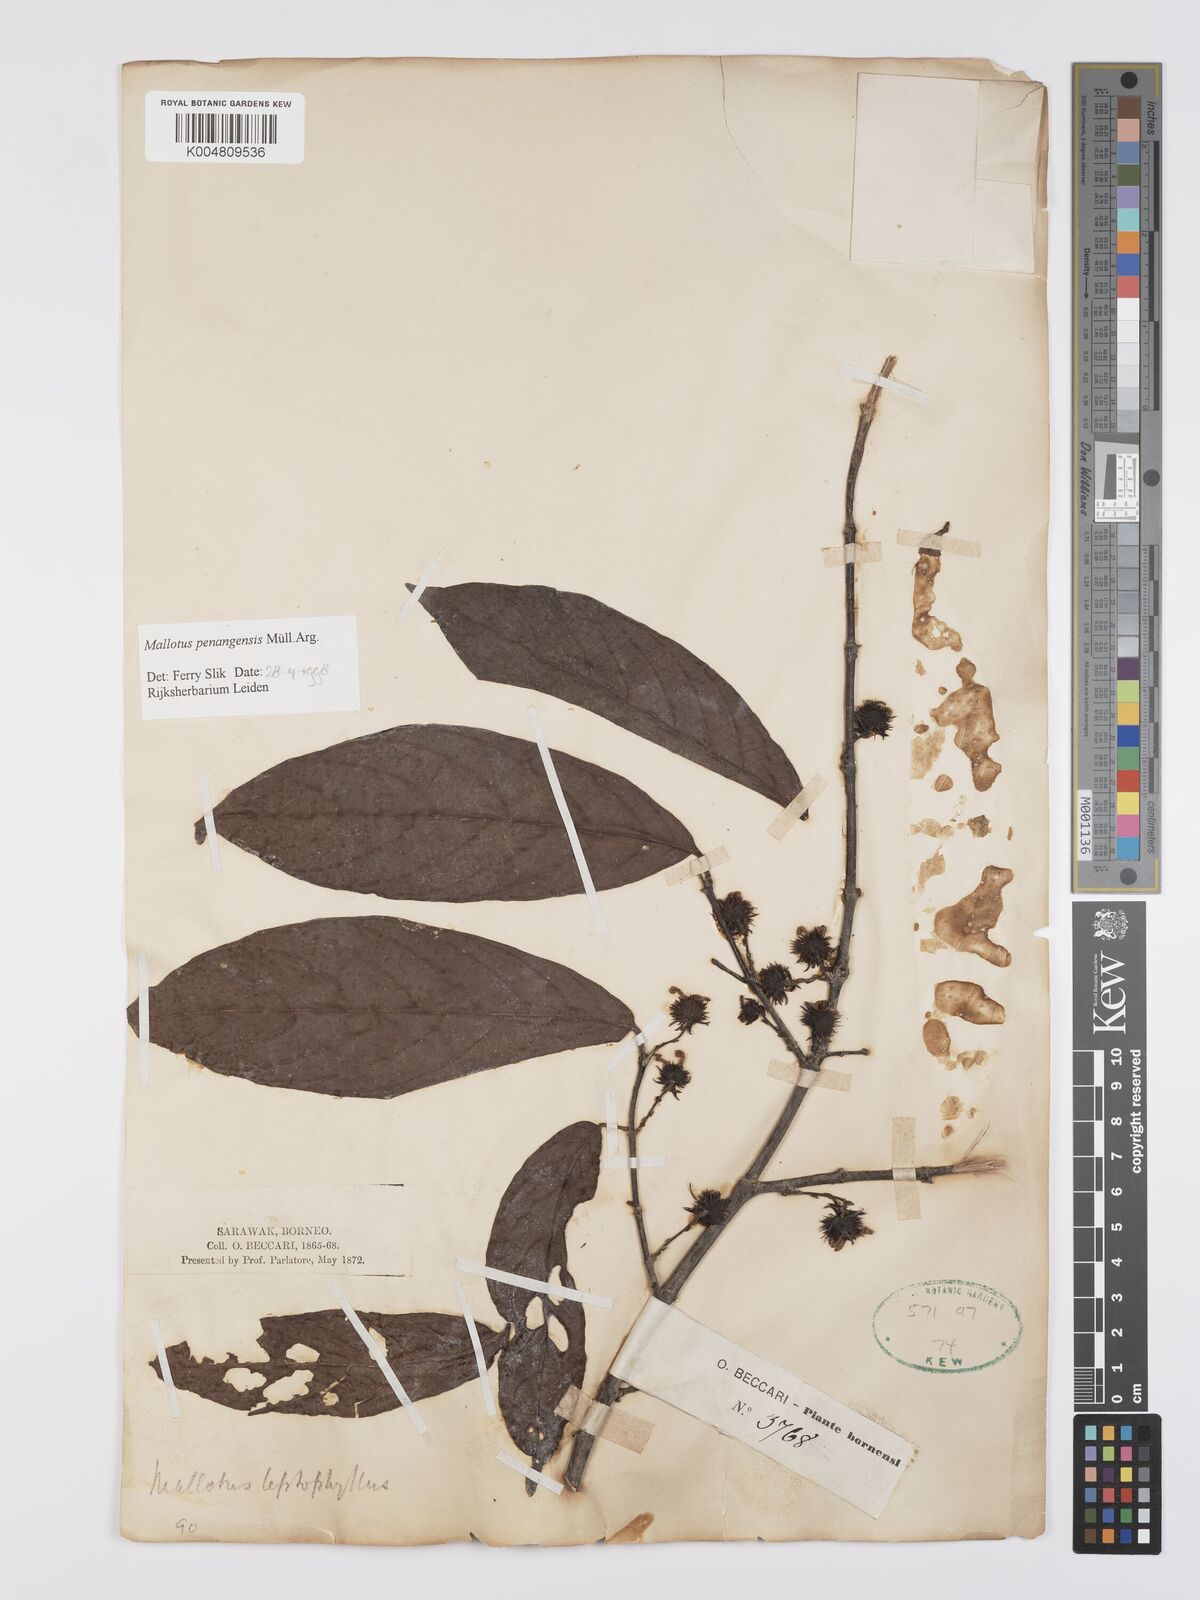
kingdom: Plantae
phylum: Tracheophyta
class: Magnoliopsida
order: Malpighiales
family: Euphorbiaceae
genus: Hancea
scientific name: Hancea penangensis
